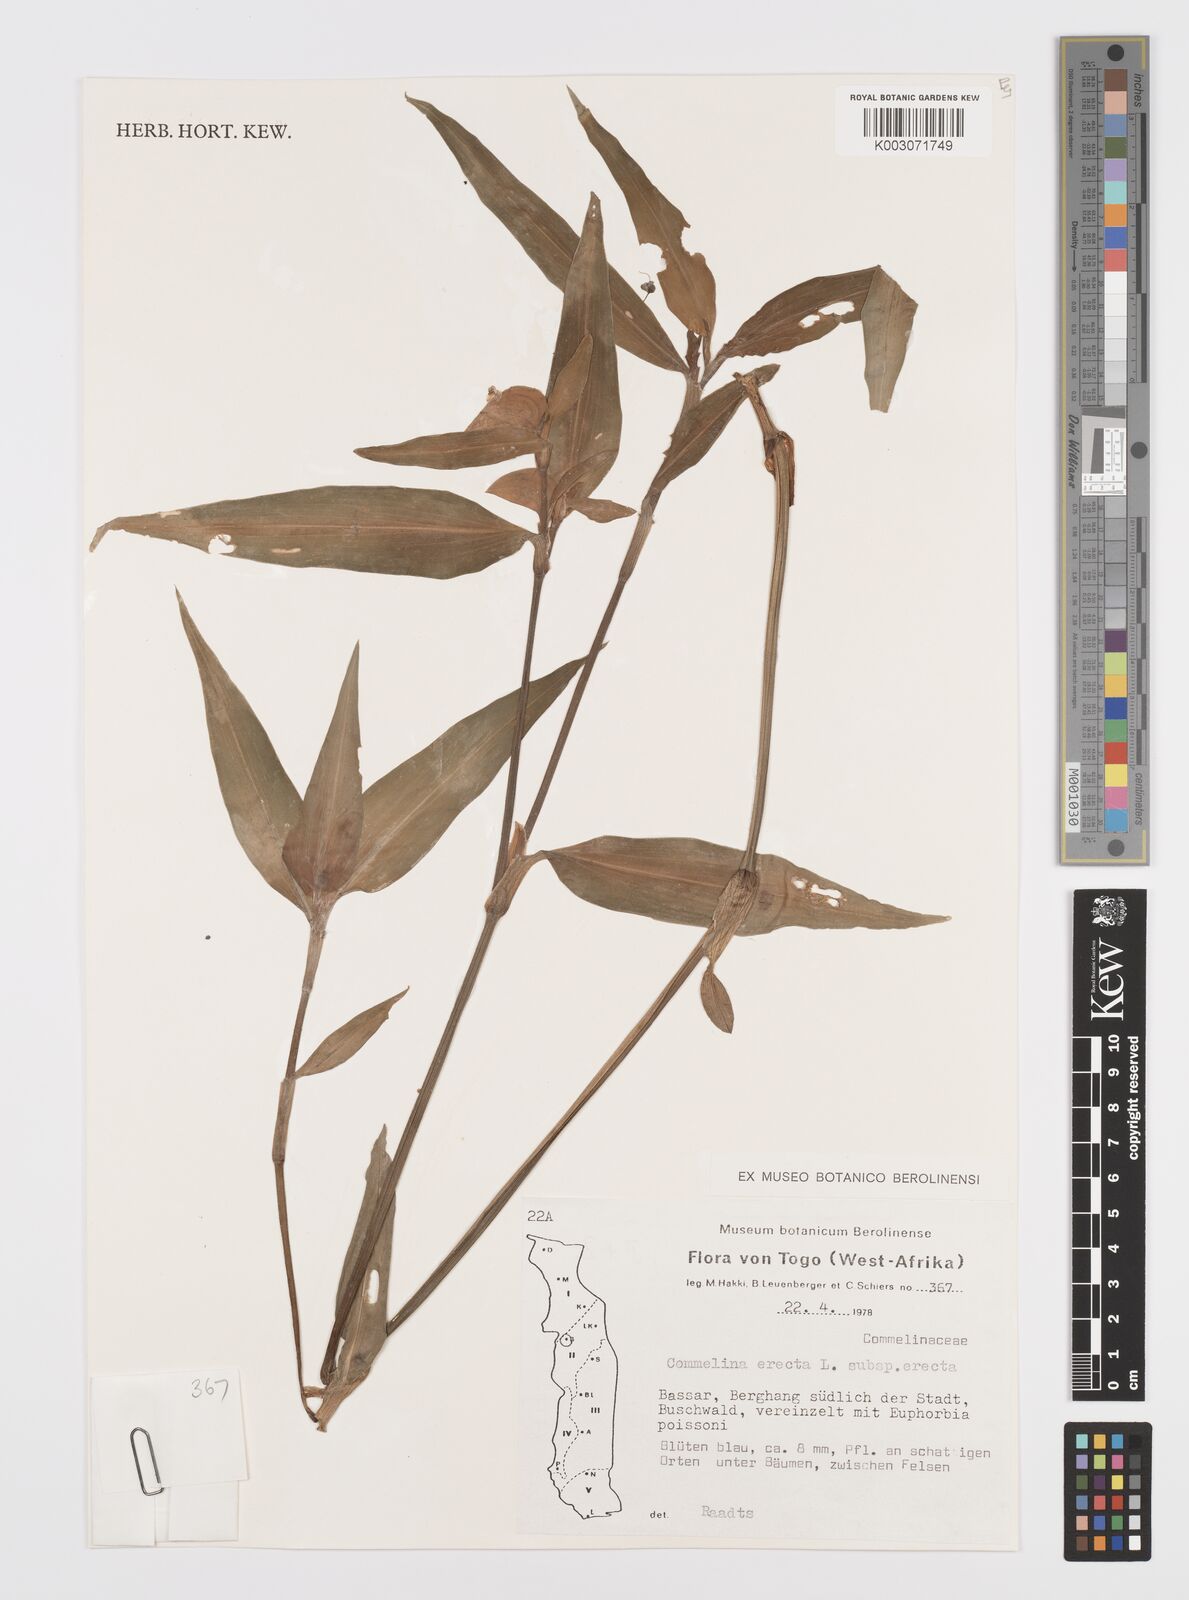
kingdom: Plantae
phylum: Tracheophyta
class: Liliopsida
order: Commelinales
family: Commelinaceae
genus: Commelina
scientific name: Commelina erecta
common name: Blousel blommetjie
